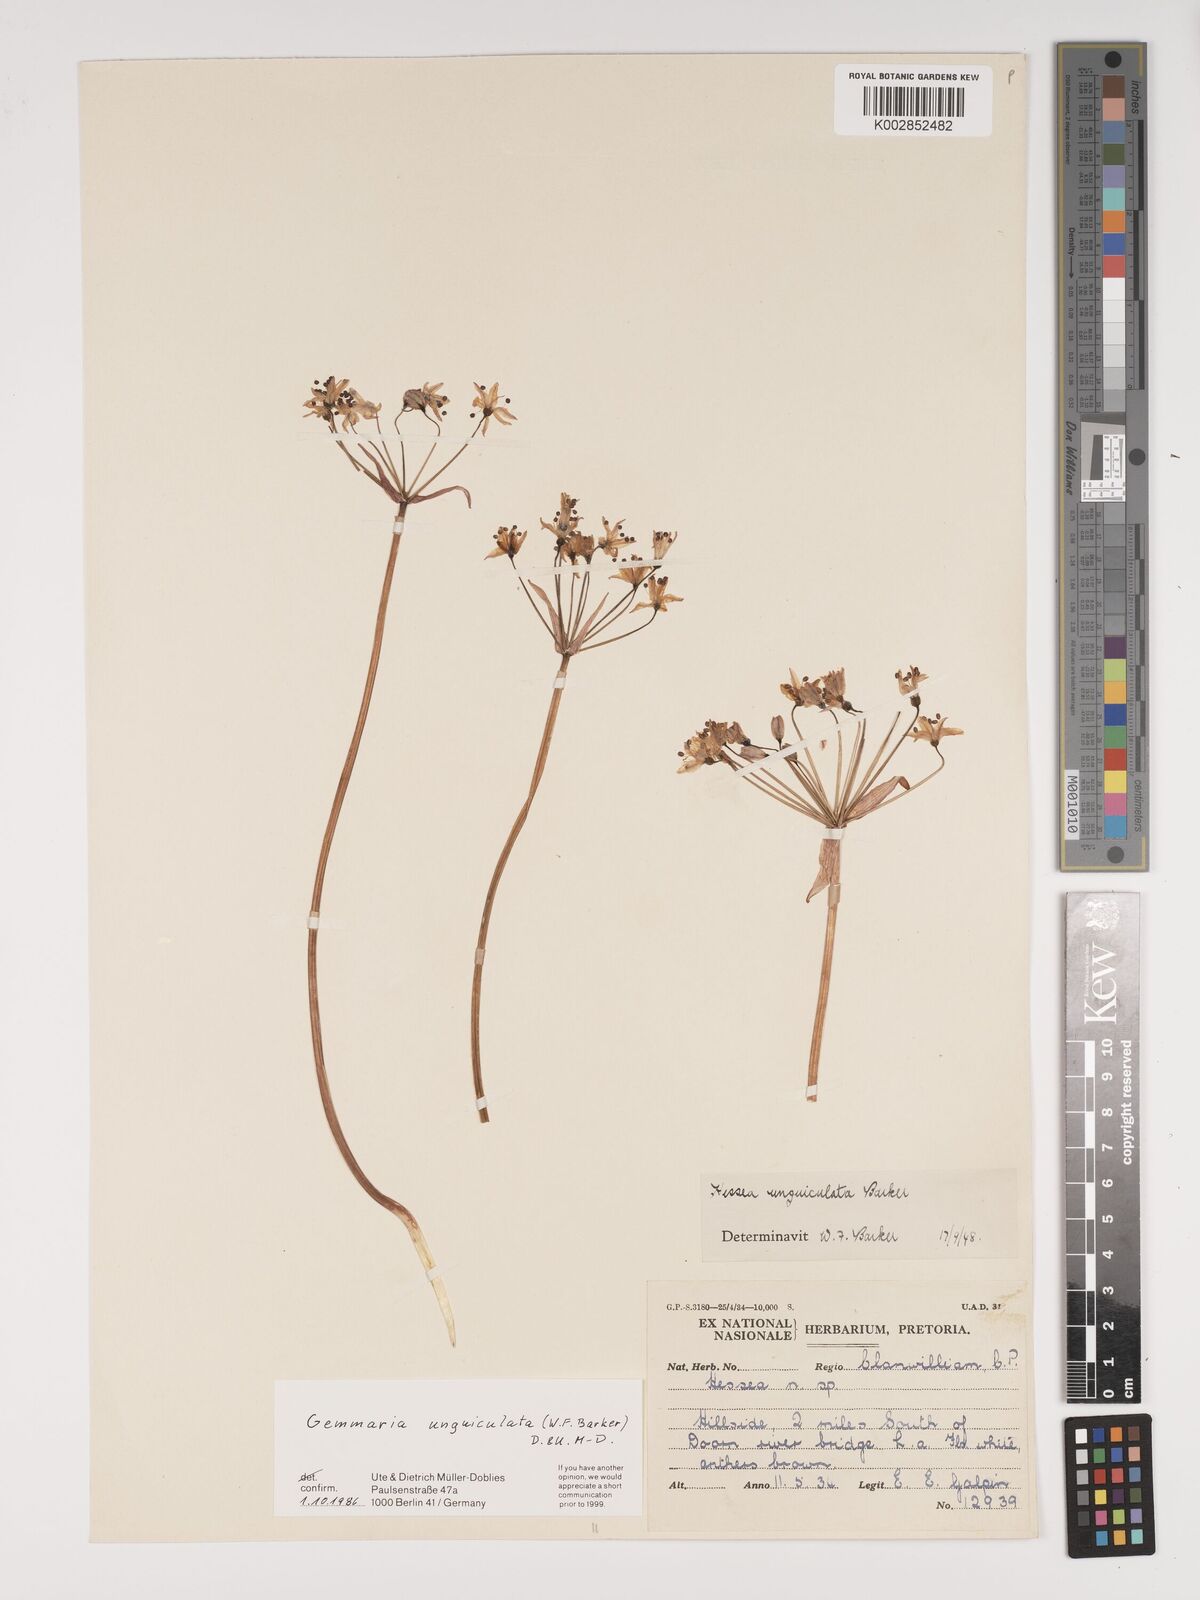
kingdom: Plantae
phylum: Tracheophyta
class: Liliopsida
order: Asparagales
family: Amaryllidaceae
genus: Strumaria
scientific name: Strumaria unguiculata
